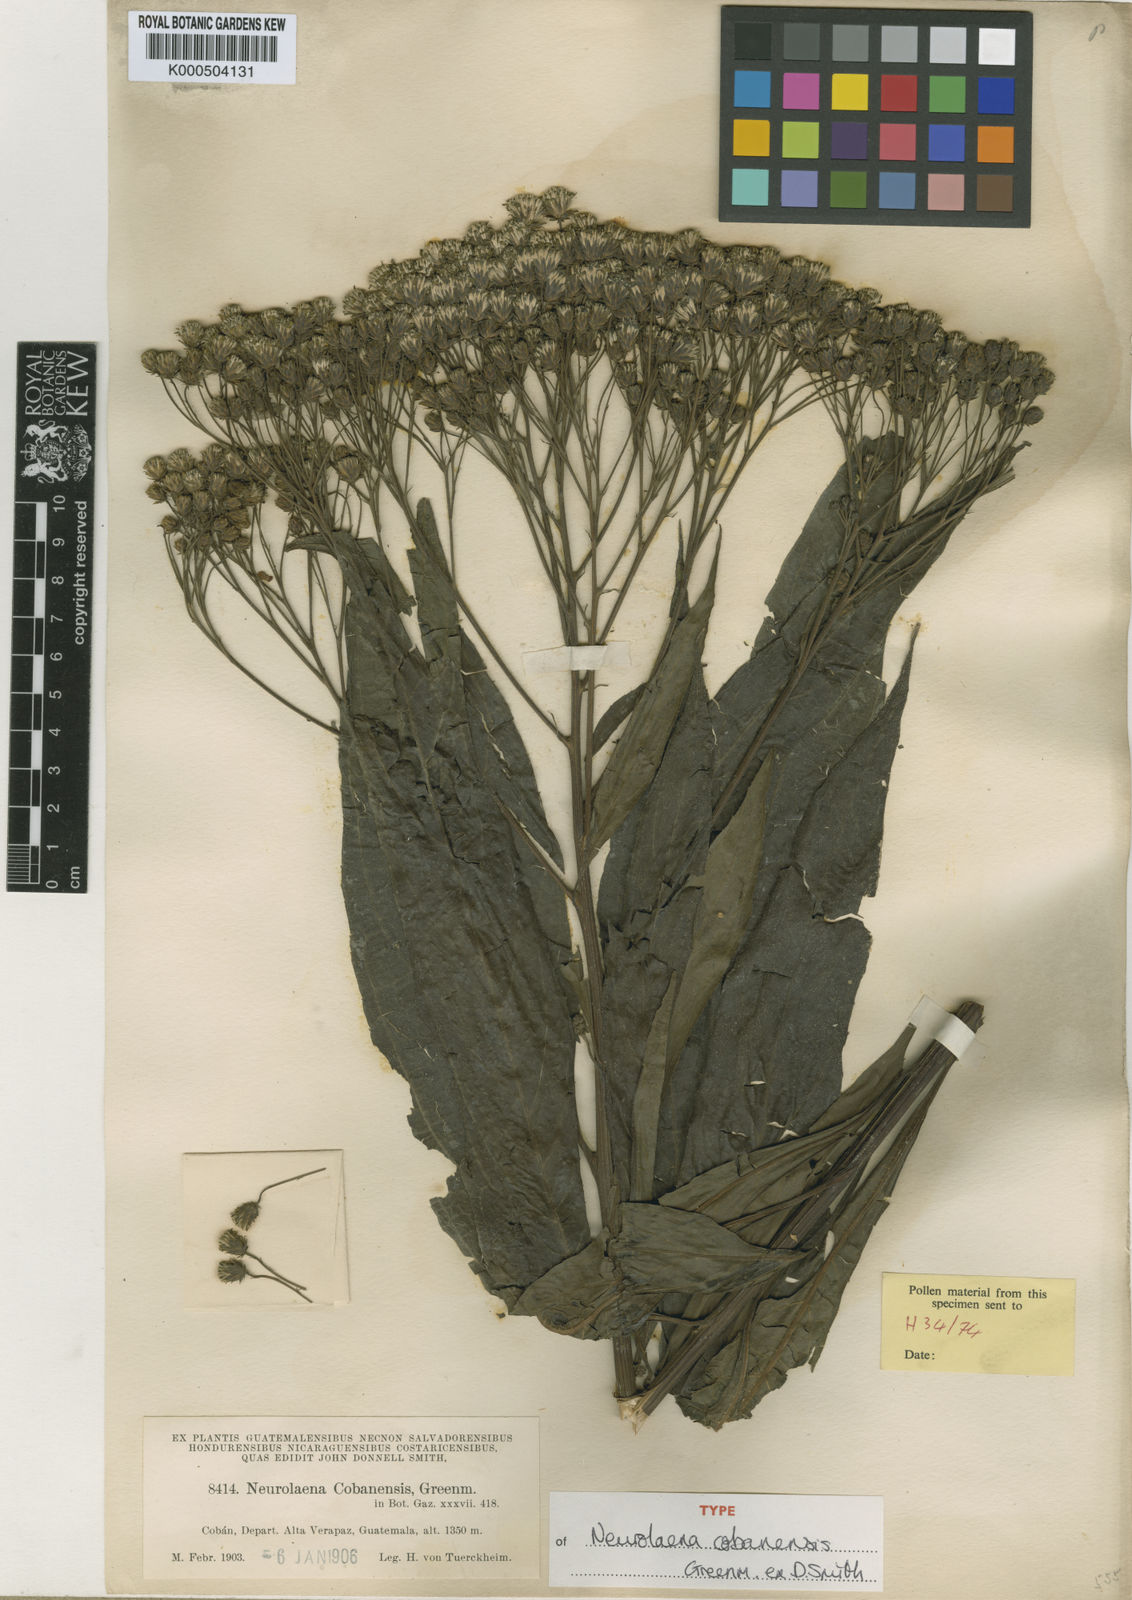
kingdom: Plantae
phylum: Tracheophyta
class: Magnoliopsida
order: Asterales
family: Asteraceae
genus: Neurolaena
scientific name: Neurolaena
